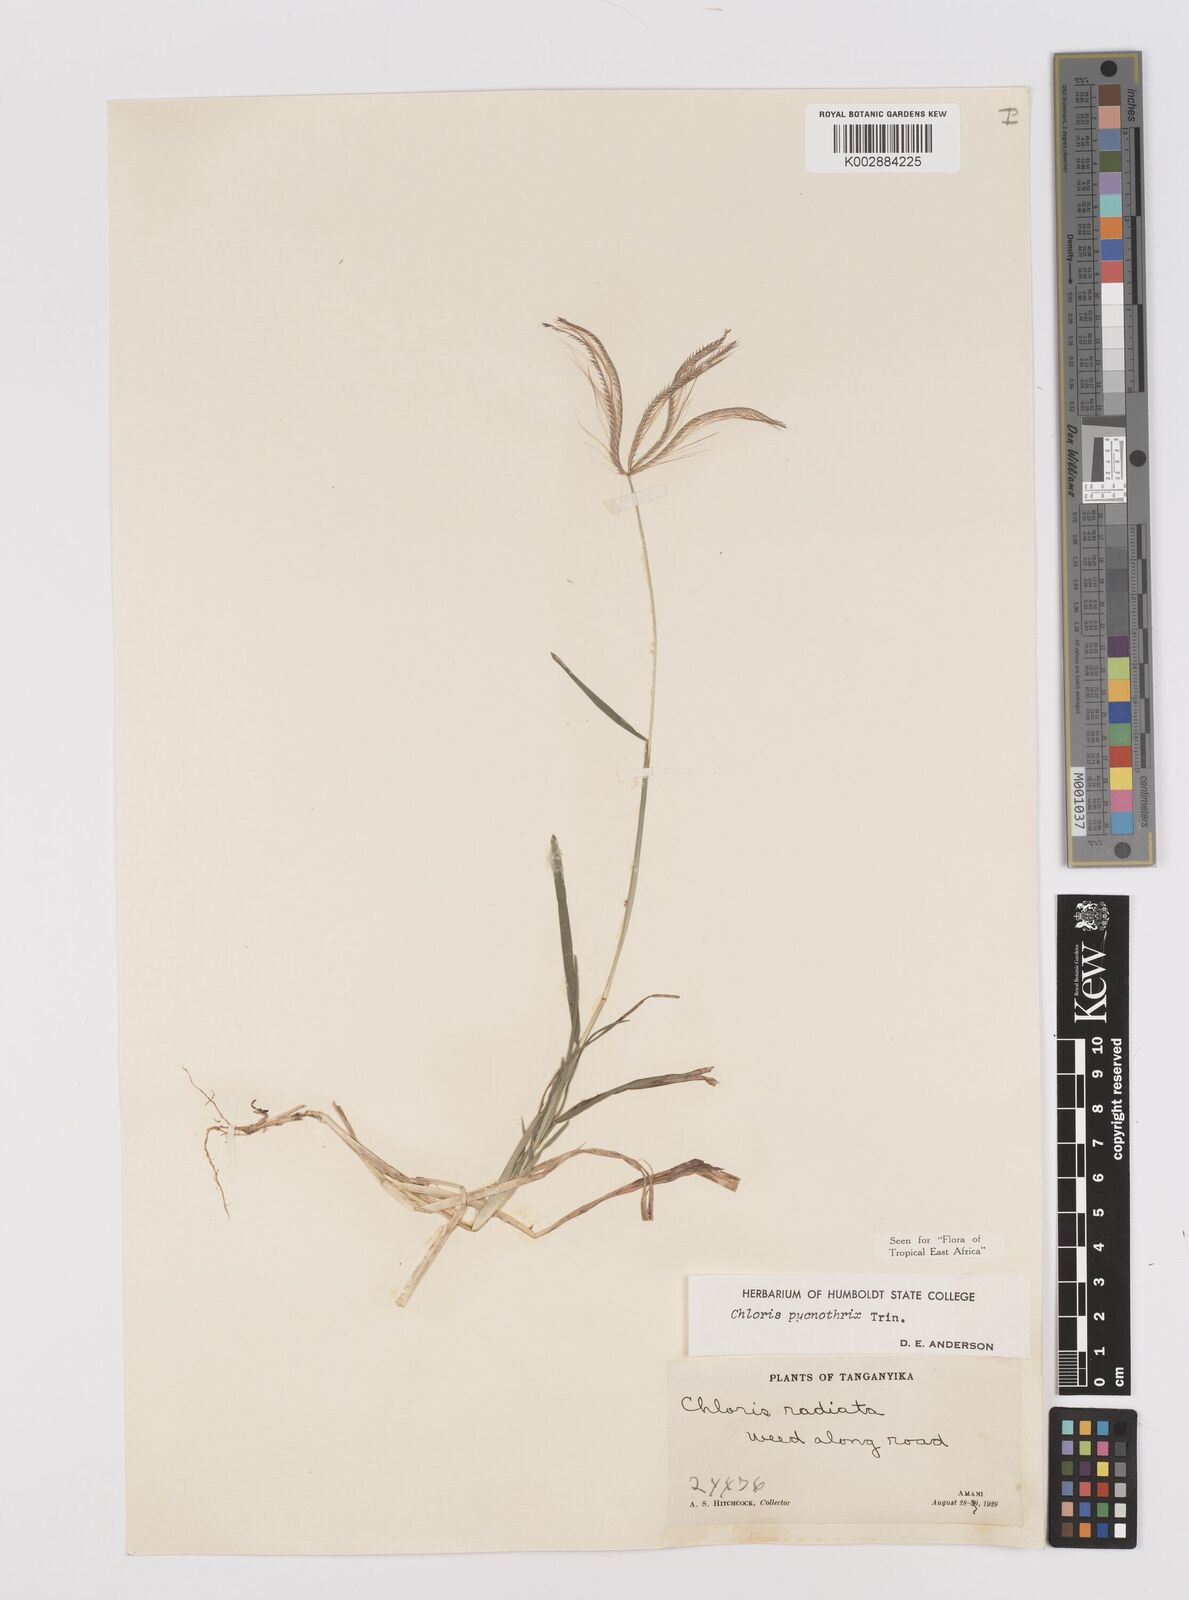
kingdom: Plantae
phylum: Tracheophyta
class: Liliopsida
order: Poales
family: Poaceae
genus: Chloris
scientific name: Chloris pycnothrix
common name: Spiderweb chloris
